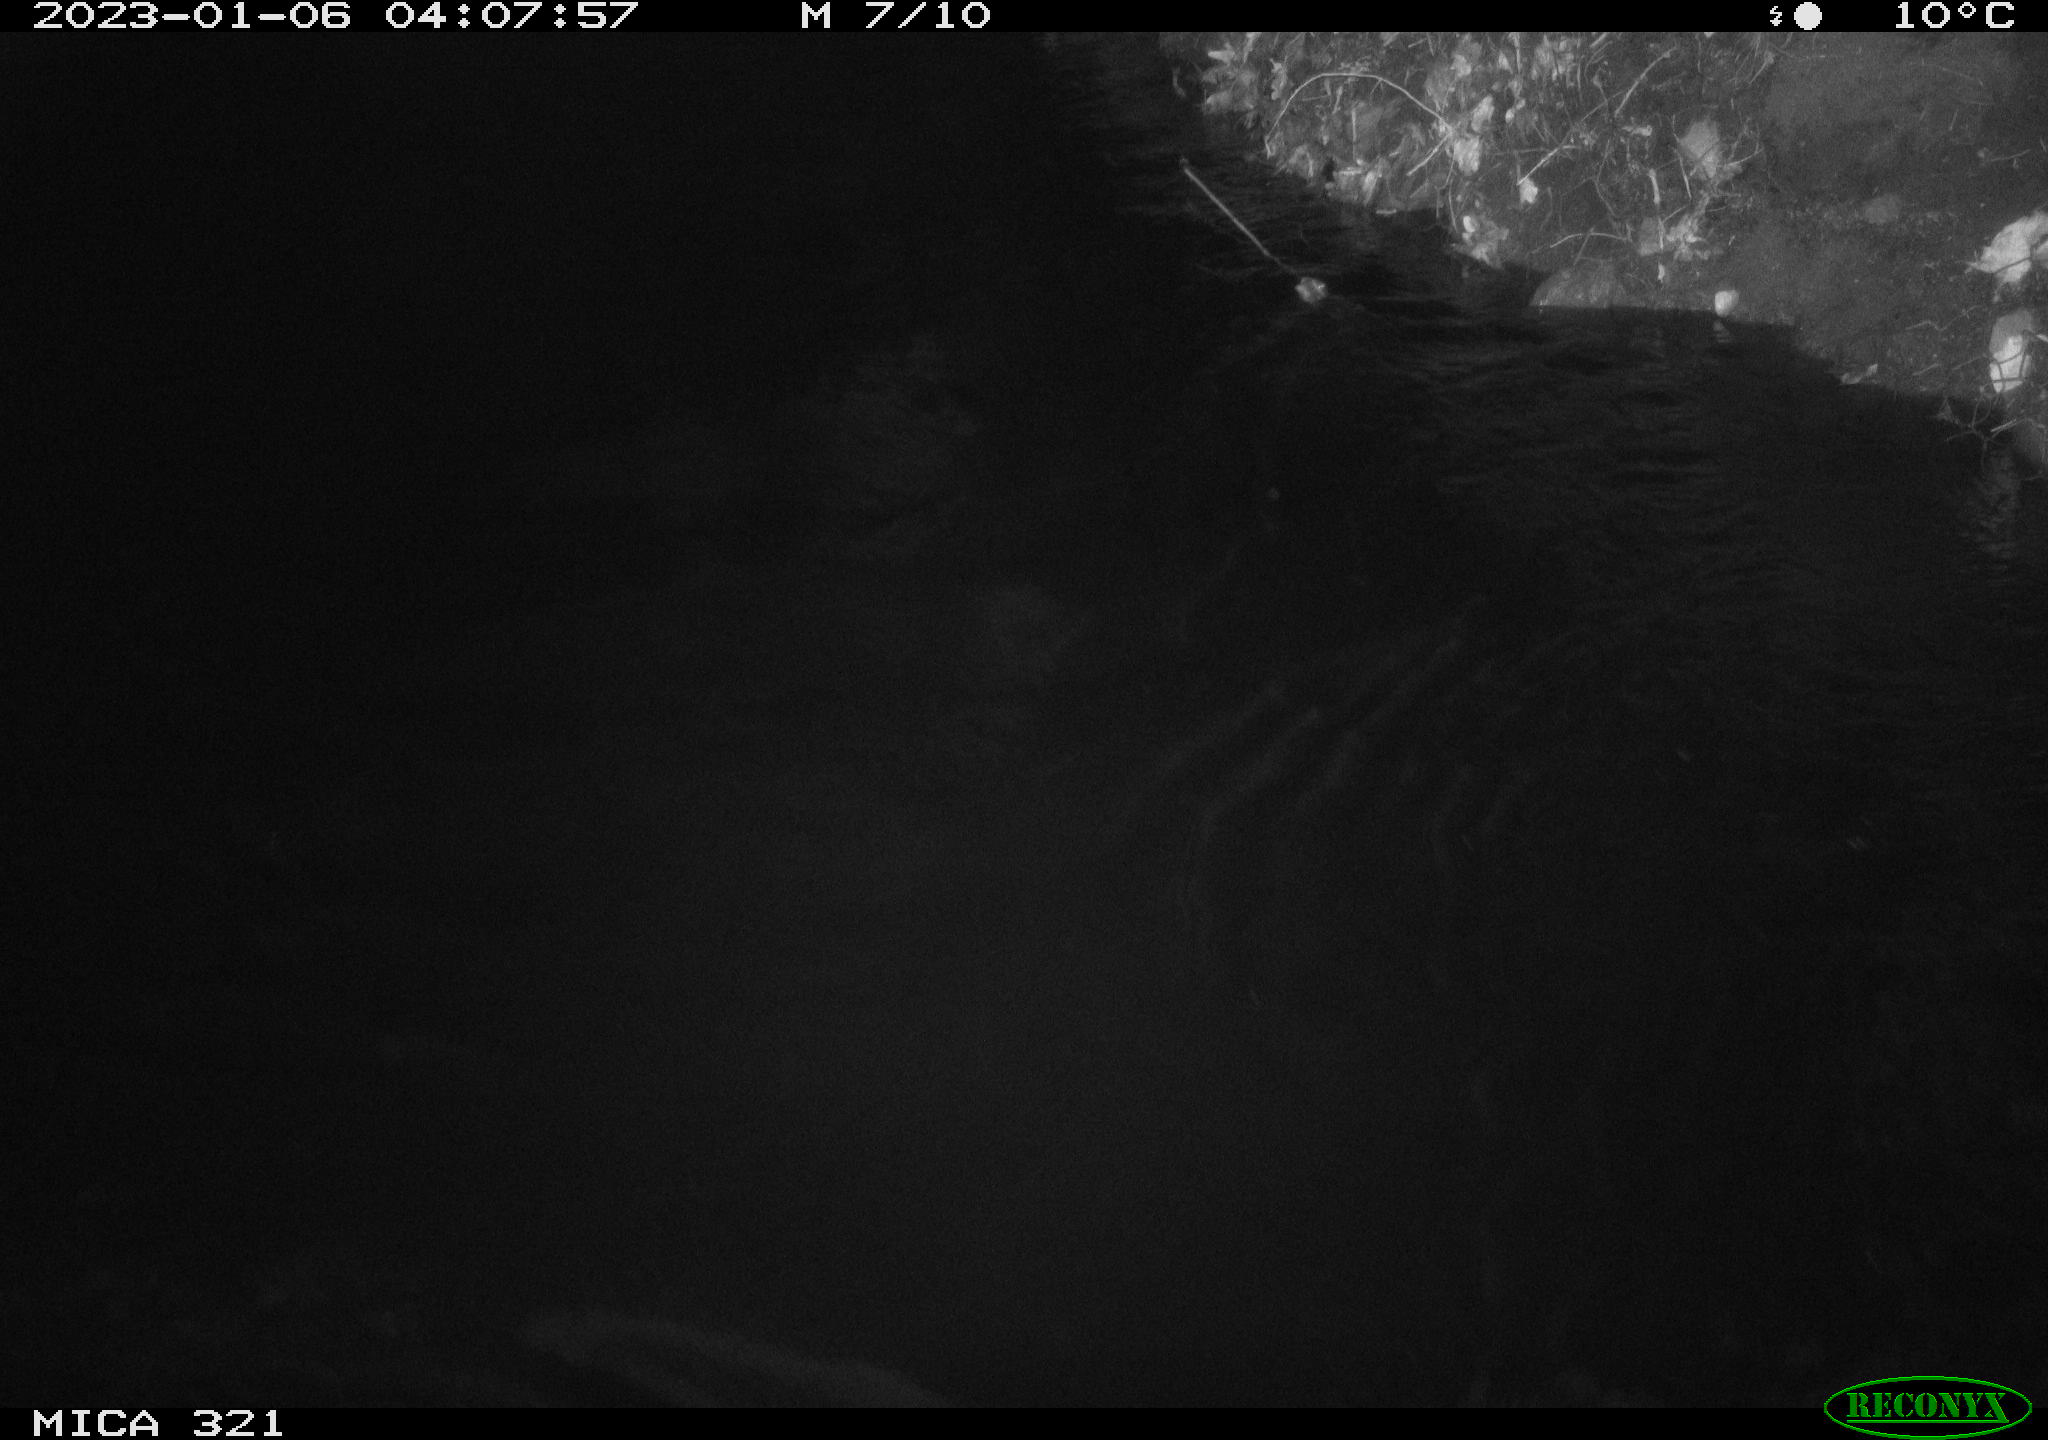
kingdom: Animalia
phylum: Chordata
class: Aves
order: Anseriformes
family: Anatidae
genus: Anas
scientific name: Anas
